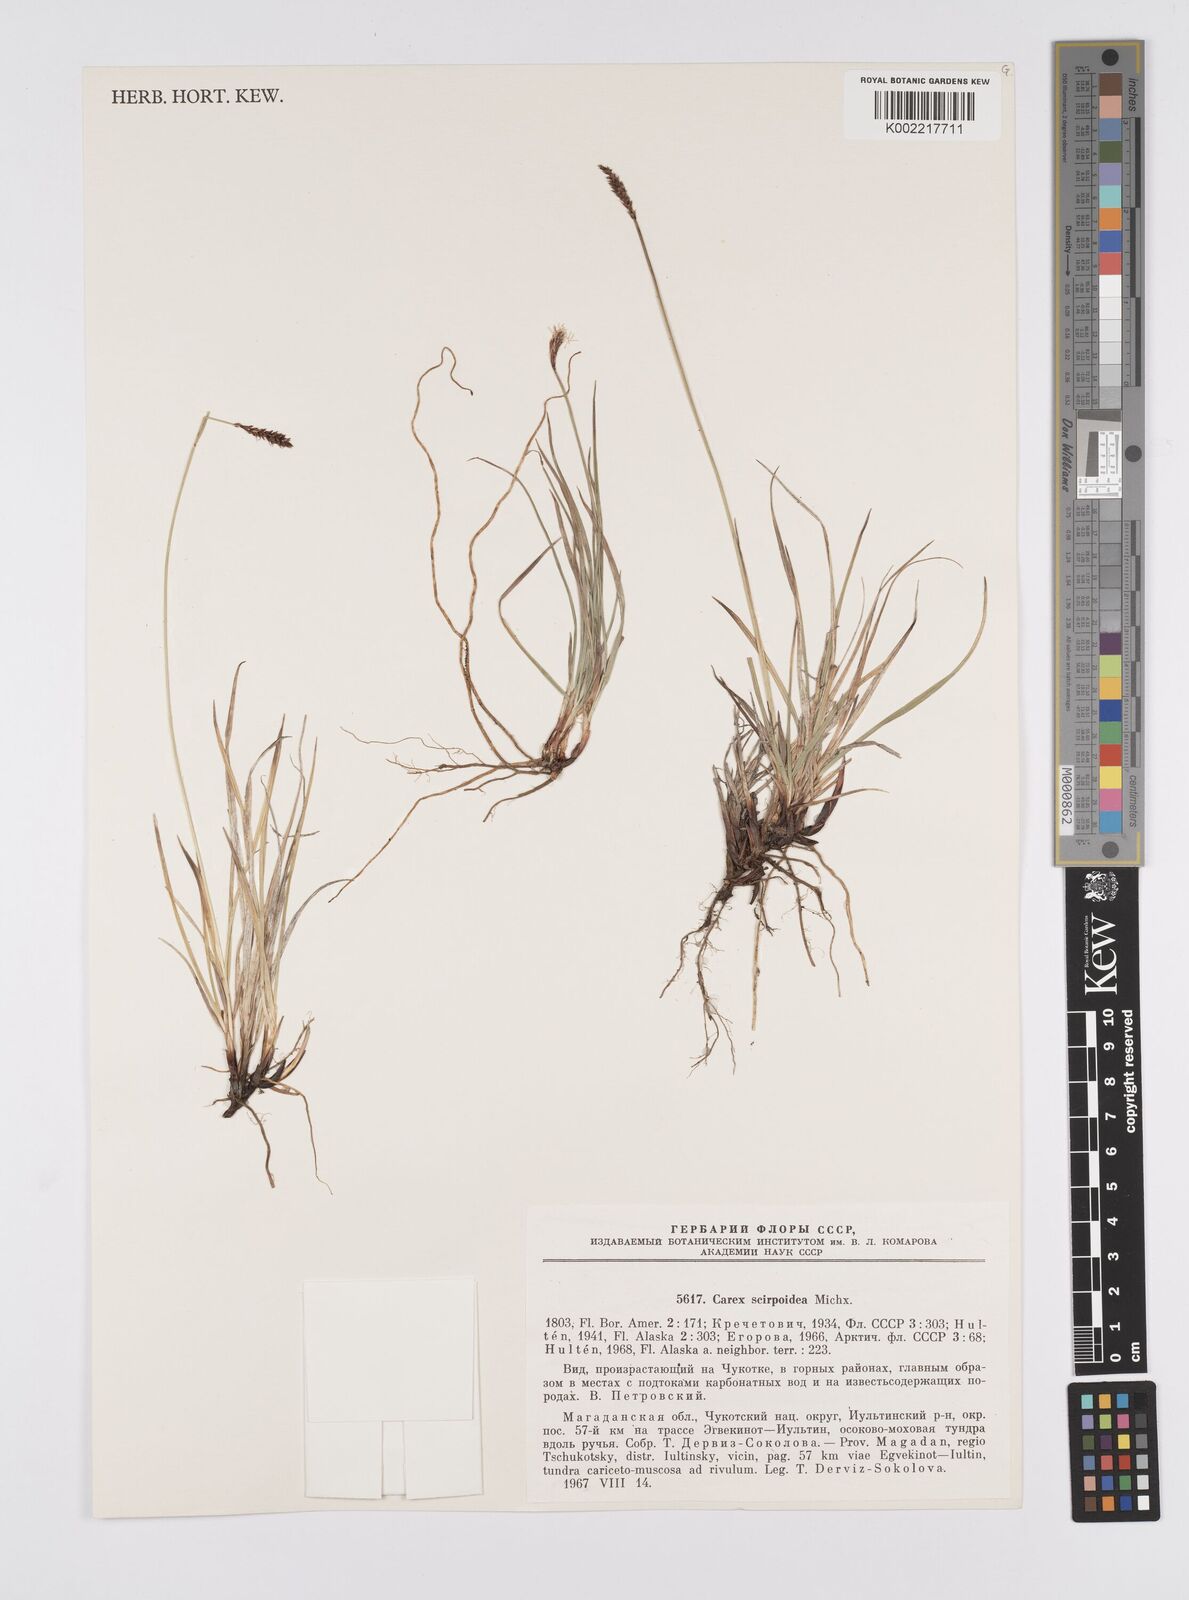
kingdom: Plantae
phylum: Tracheophyta
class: Liliopsida
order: Poales
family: Cyperaceae
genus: Carex
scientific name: Carex scirpoidea
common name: Canada single-spike sedge
